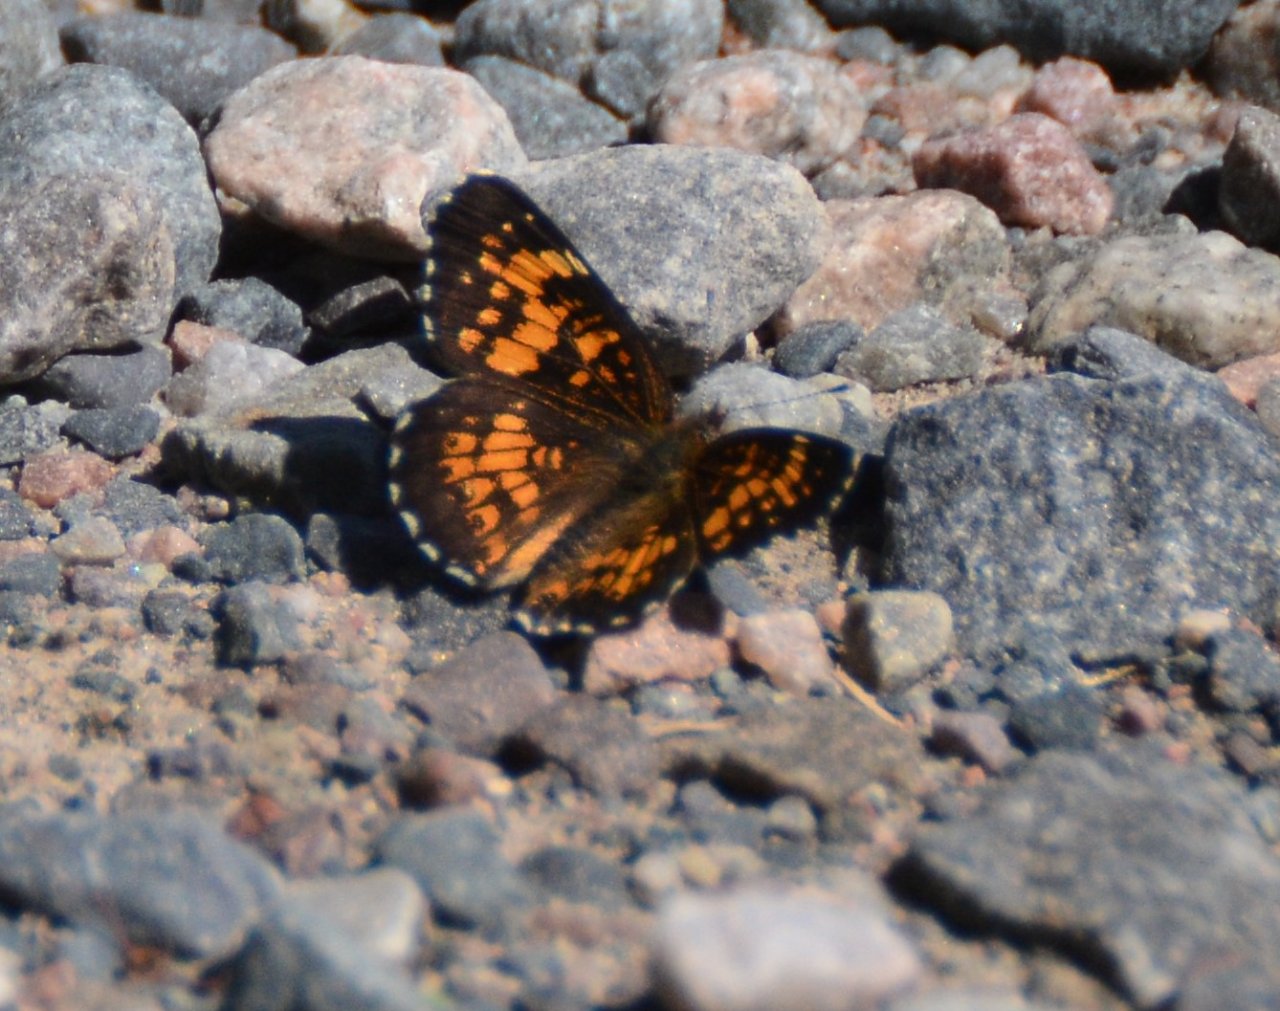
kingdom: Animalia
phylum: Arthropoda
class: Insecta
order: Lepidoptera
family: Nymphalidae
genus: Chlosyne
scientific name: Chlosyne harrisii
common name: Harris's Checkerspot
